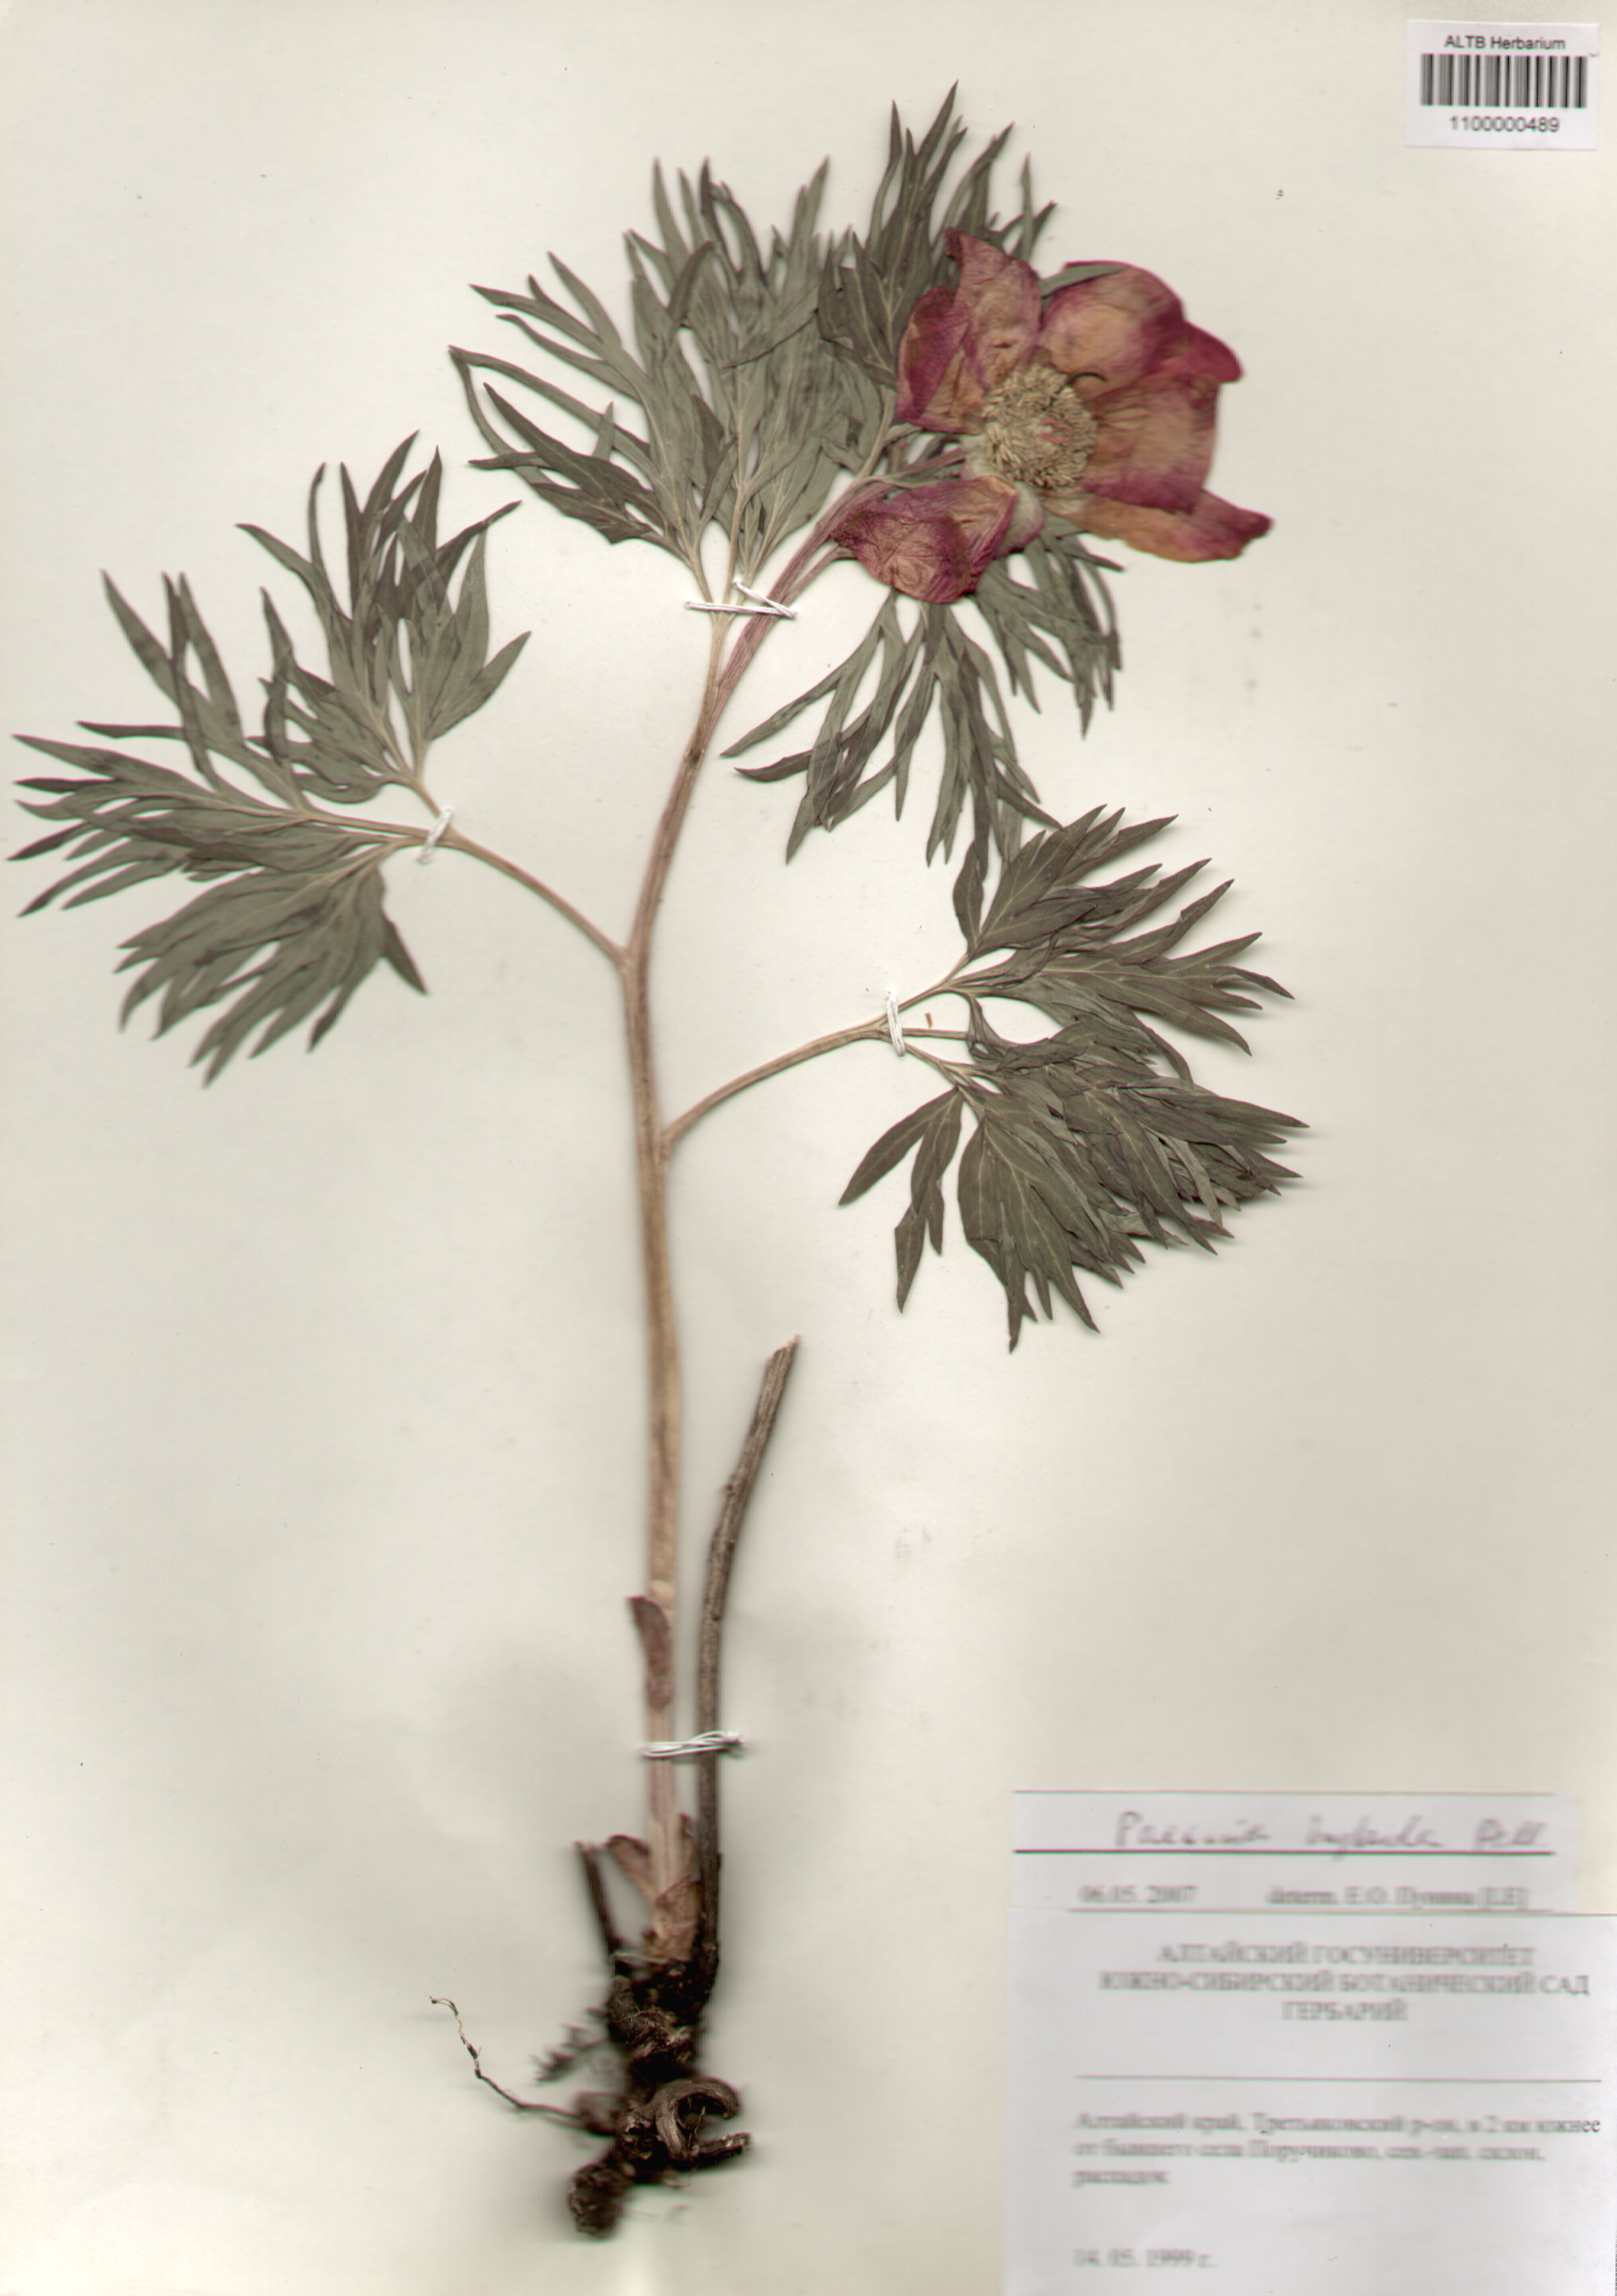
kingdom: Plantae
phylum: Tracheophyta
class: Magnoliopsida
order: Saxifragales
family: Paeoniaceae
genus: Paeonia
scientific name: Paeonia
